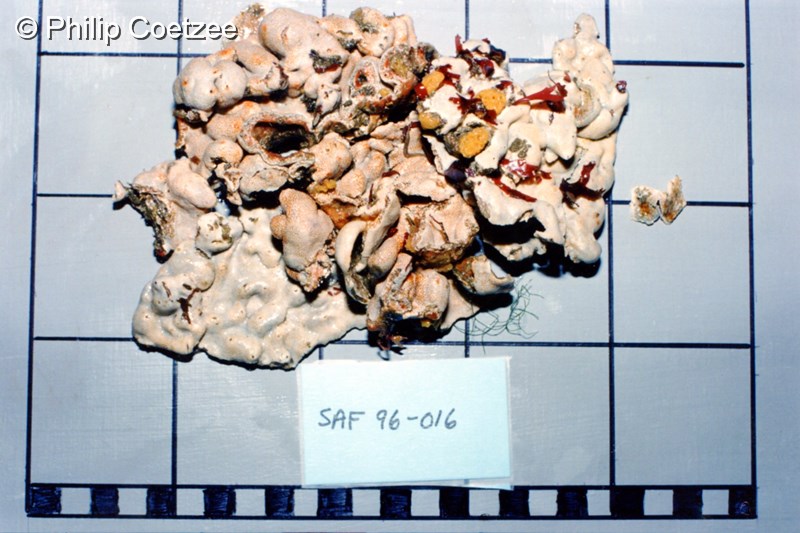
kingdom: Animalia
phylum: Chordata
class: Ascidiacea
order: Aplousobranchia
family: Didemnidae
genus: Didemnum
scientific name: Didemnum
